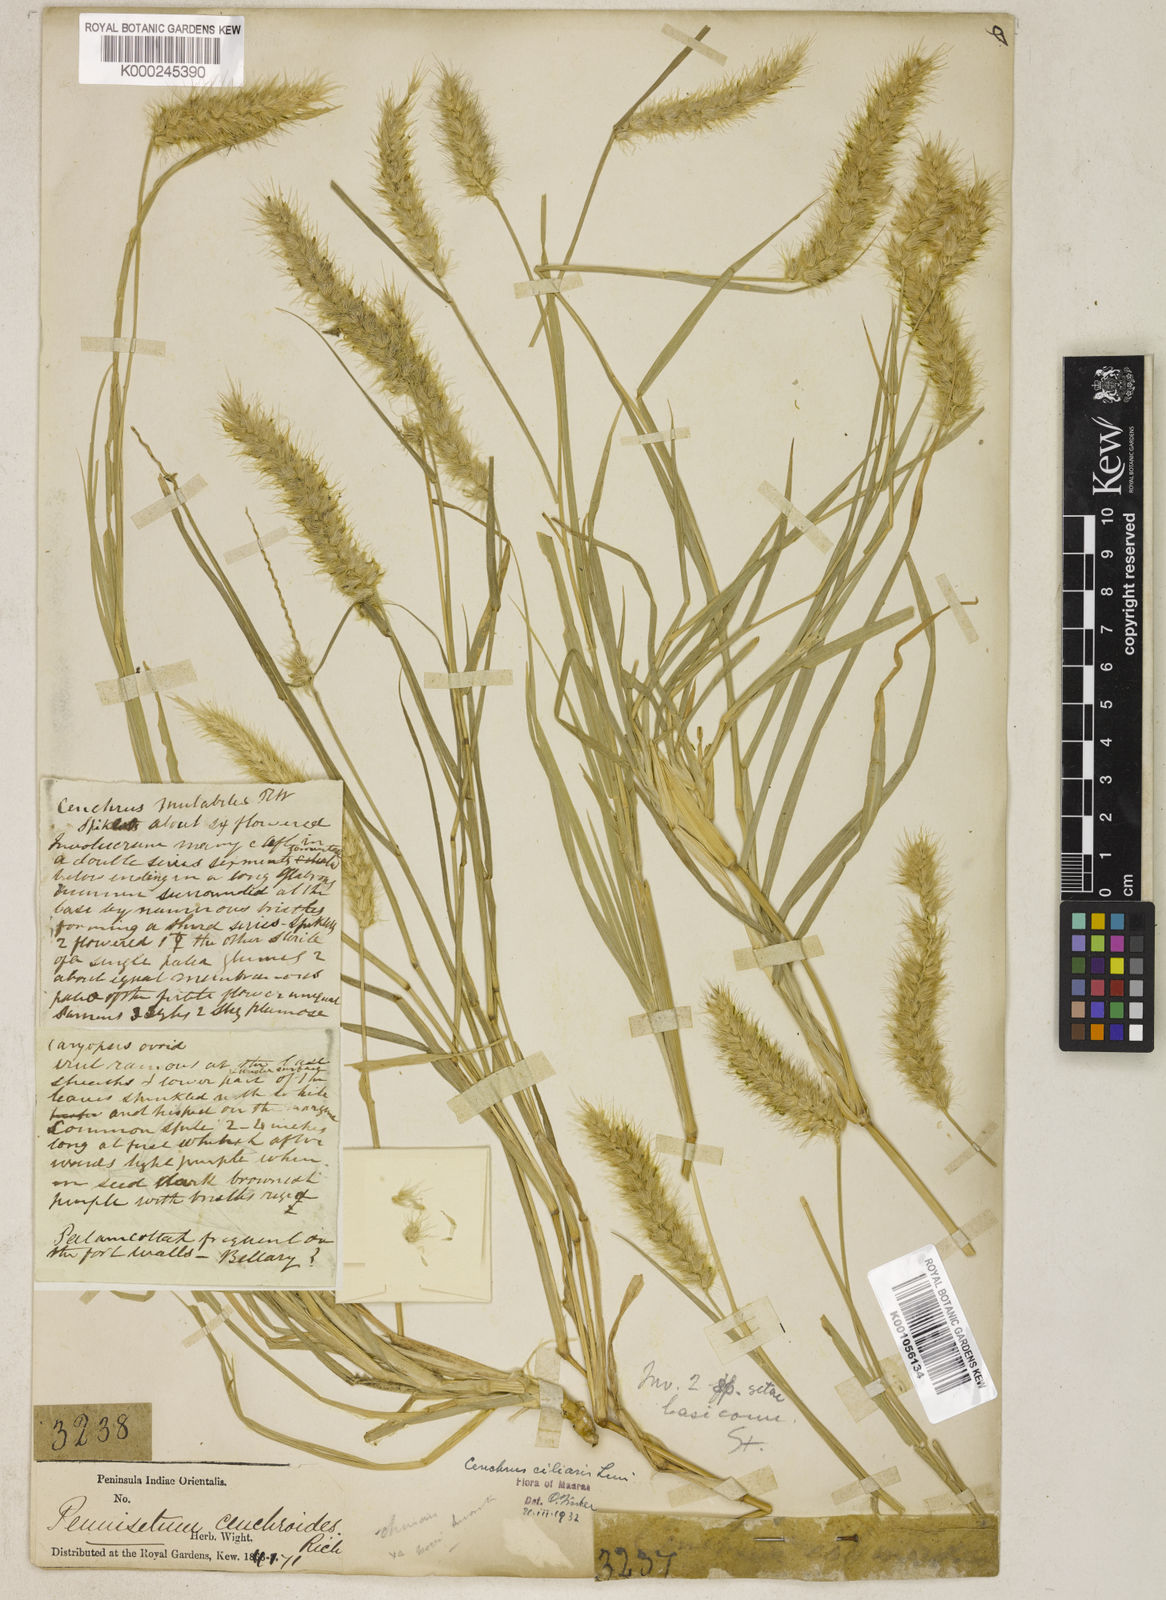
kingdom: Plantae
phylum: Tracheophyta
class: Liliopsida
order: Poales
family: Poaceae
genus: Cenchrus
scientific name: Cenchrus ciliaris
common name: Buffelgrass
